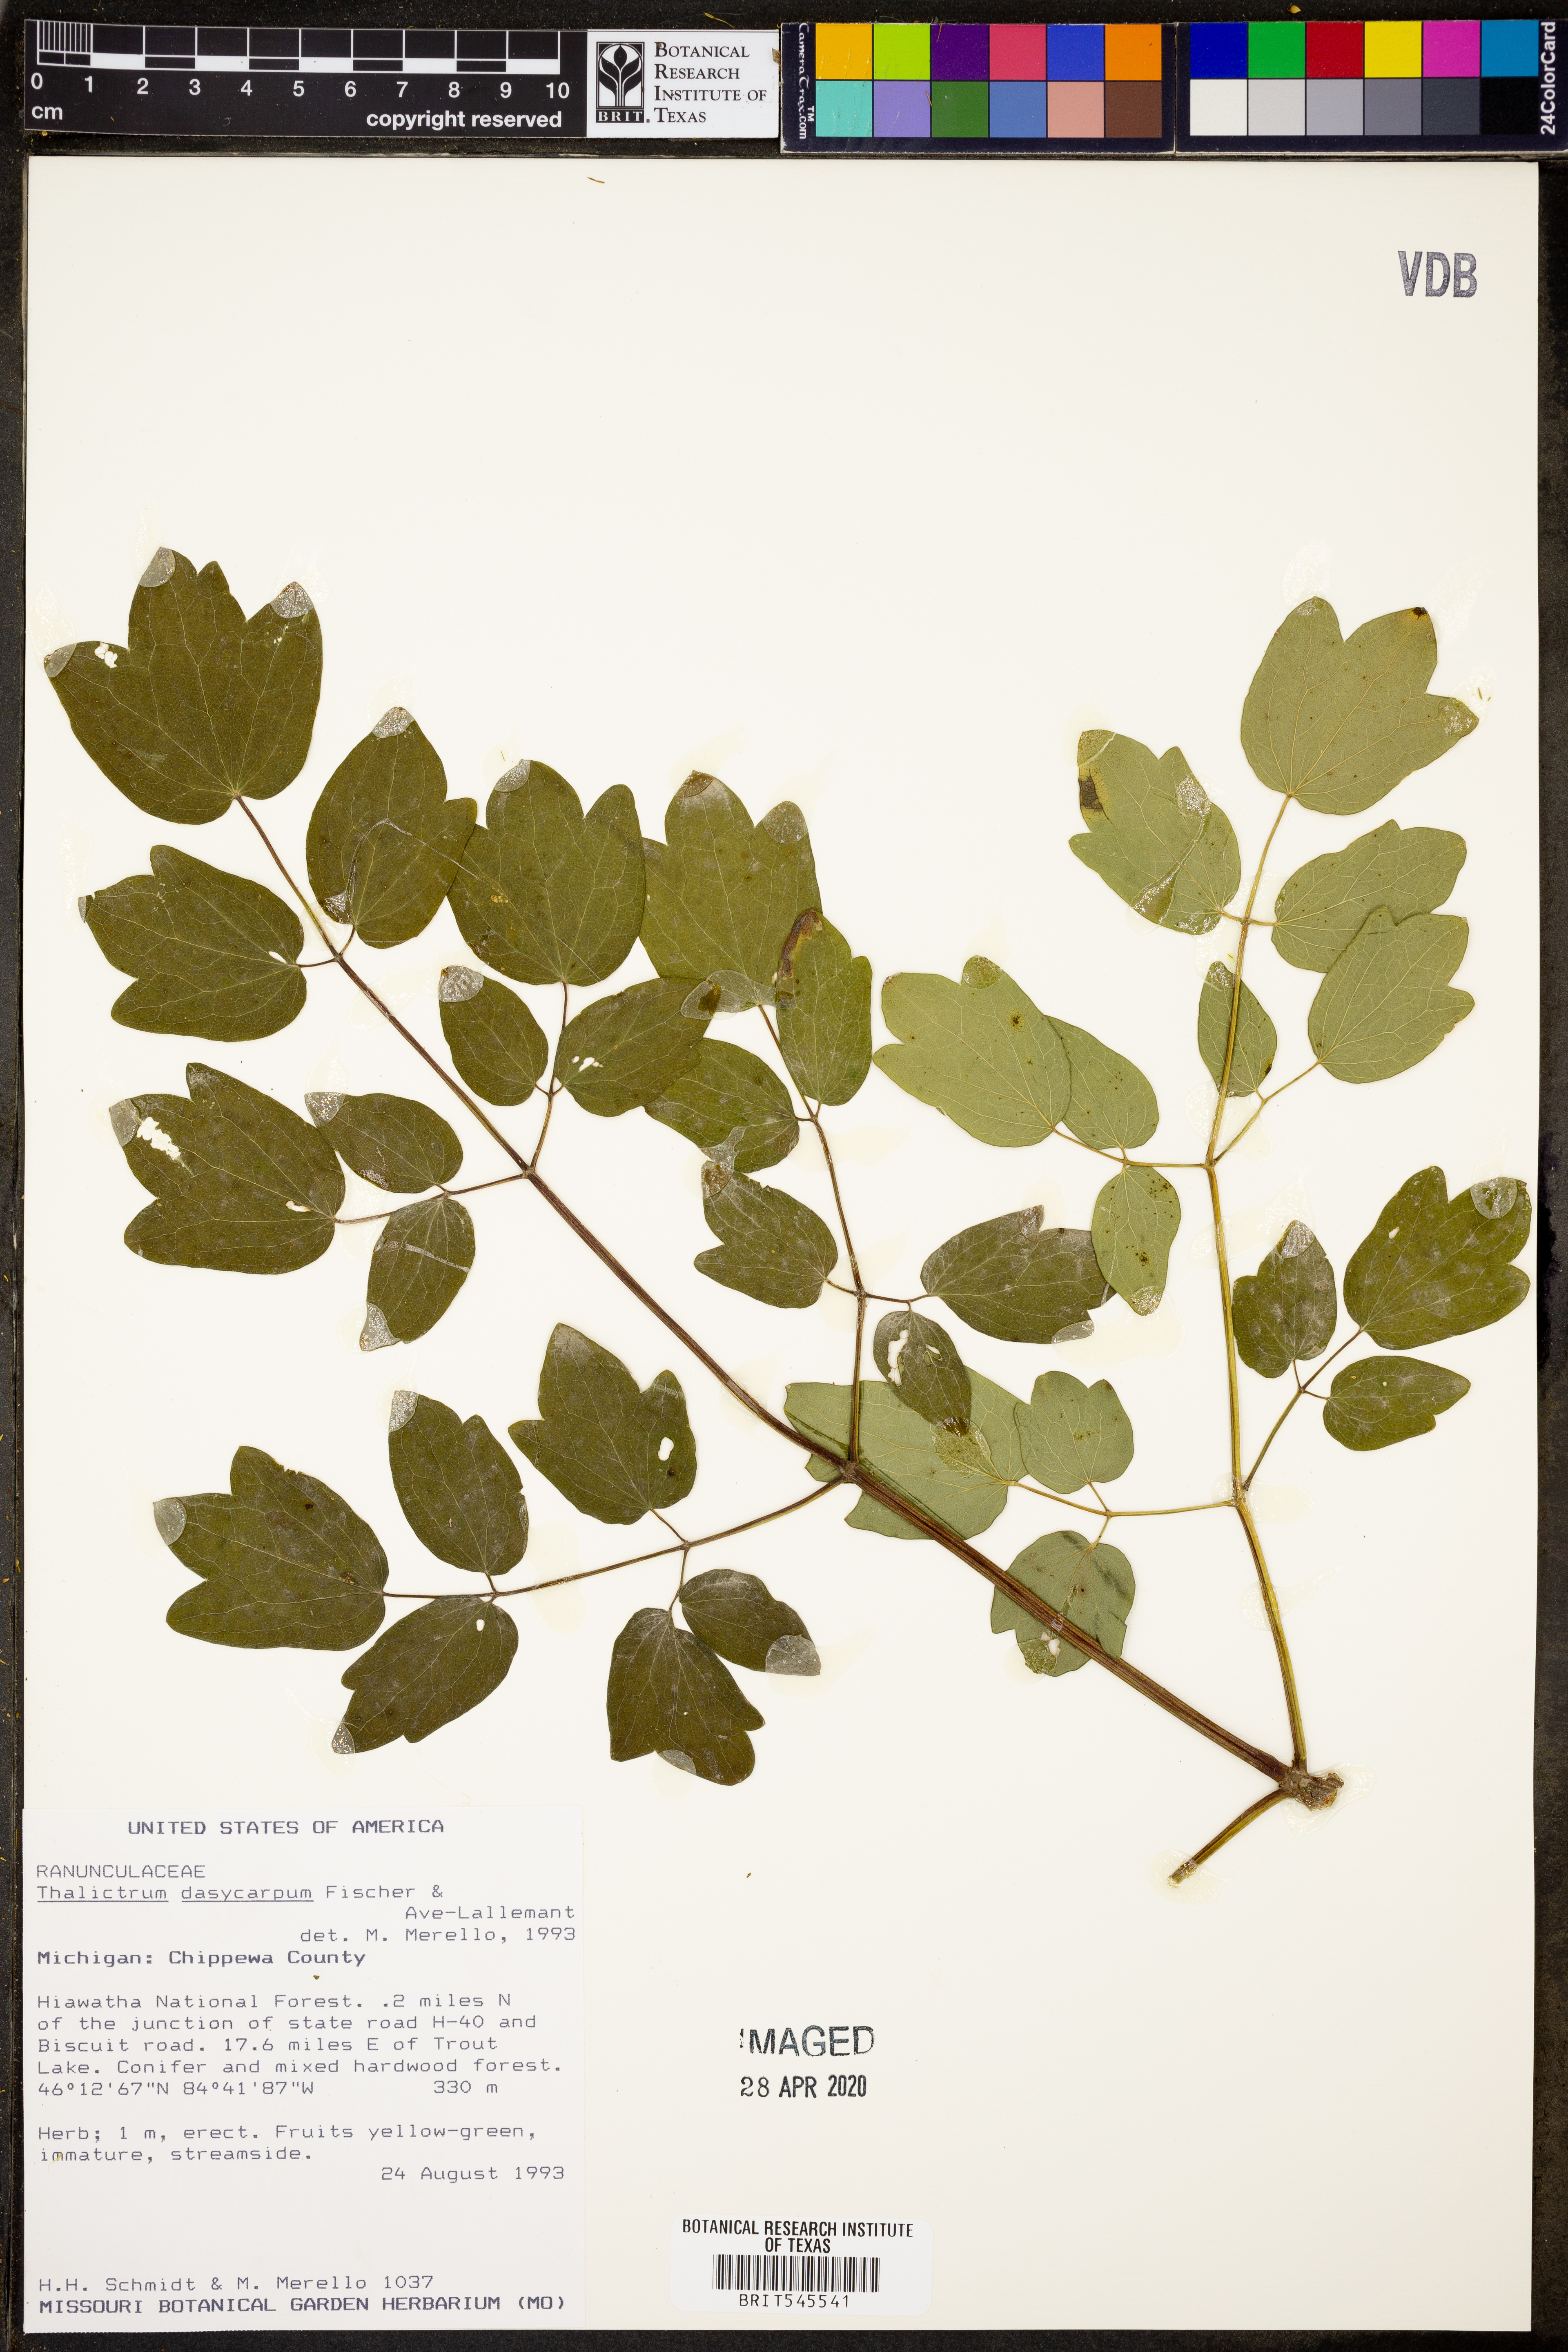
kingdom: Plantae
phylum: Tracheophyta
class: Magnoliopsida
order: Ranunculales
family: Ranunculaceae
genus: Thalictrum
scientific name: Thalictrum dasycarpum
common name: Purple meadow-rue
